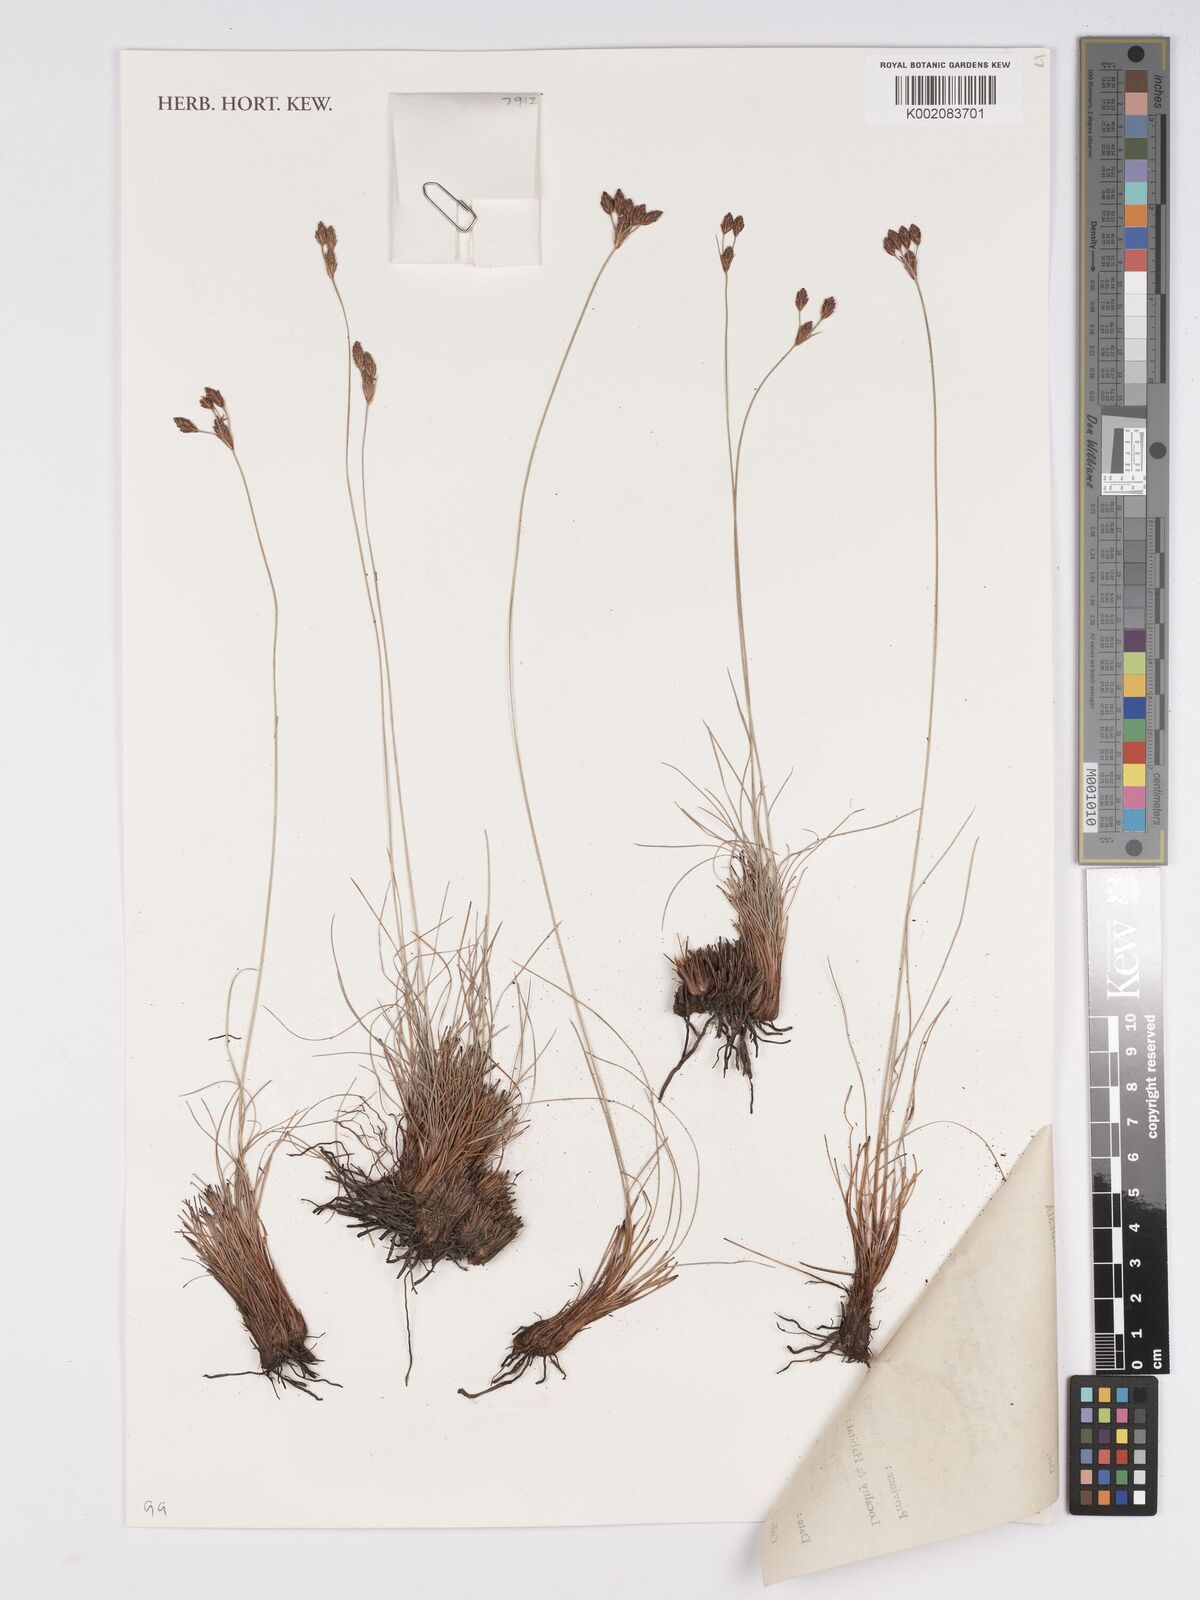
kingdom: Plantae
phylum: Tracheophyta
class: Liliopsida
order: Poales
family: Cyperaceae
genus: Bulbostylis
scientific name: Bulbostylis oritrephes
